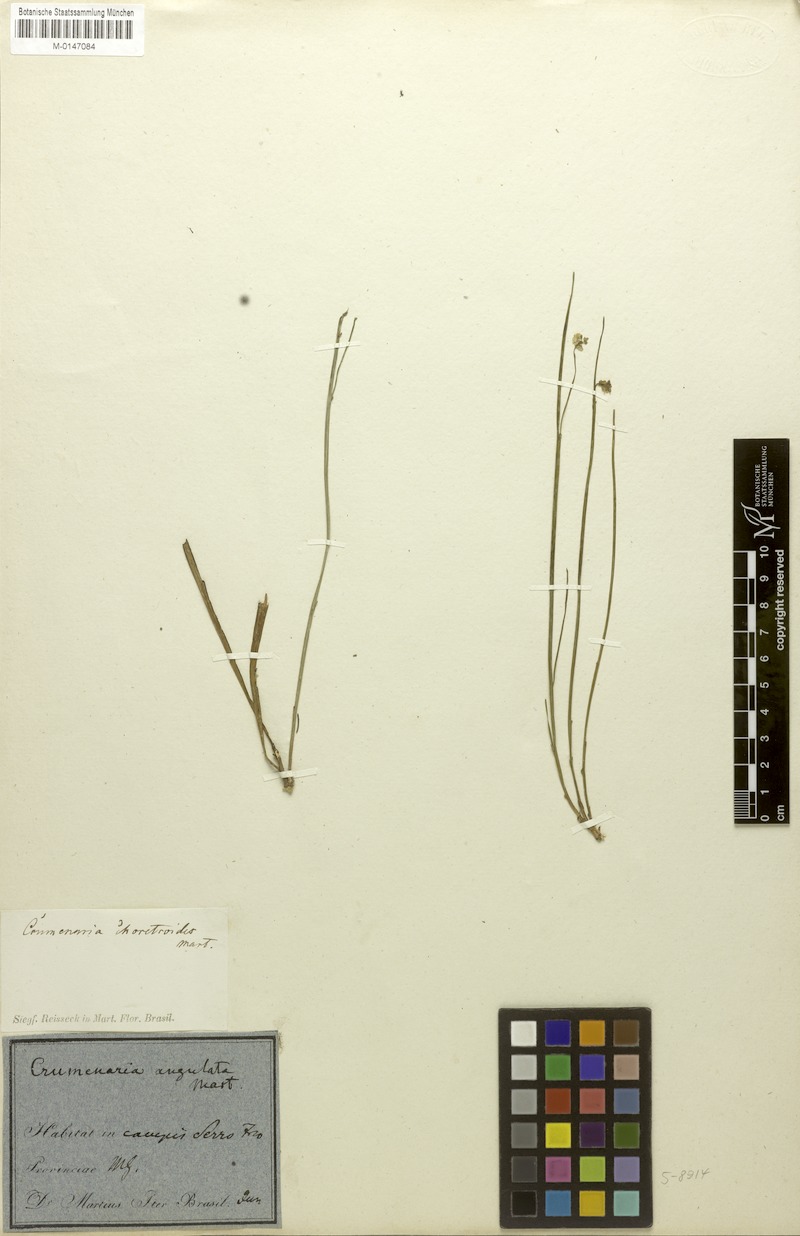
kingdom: Plantae
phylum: Tracheophyta
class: Magnoliopsida
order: Rosales
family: Rhamnaceae
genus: Crumenaria
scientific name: Crumenaria erecta
